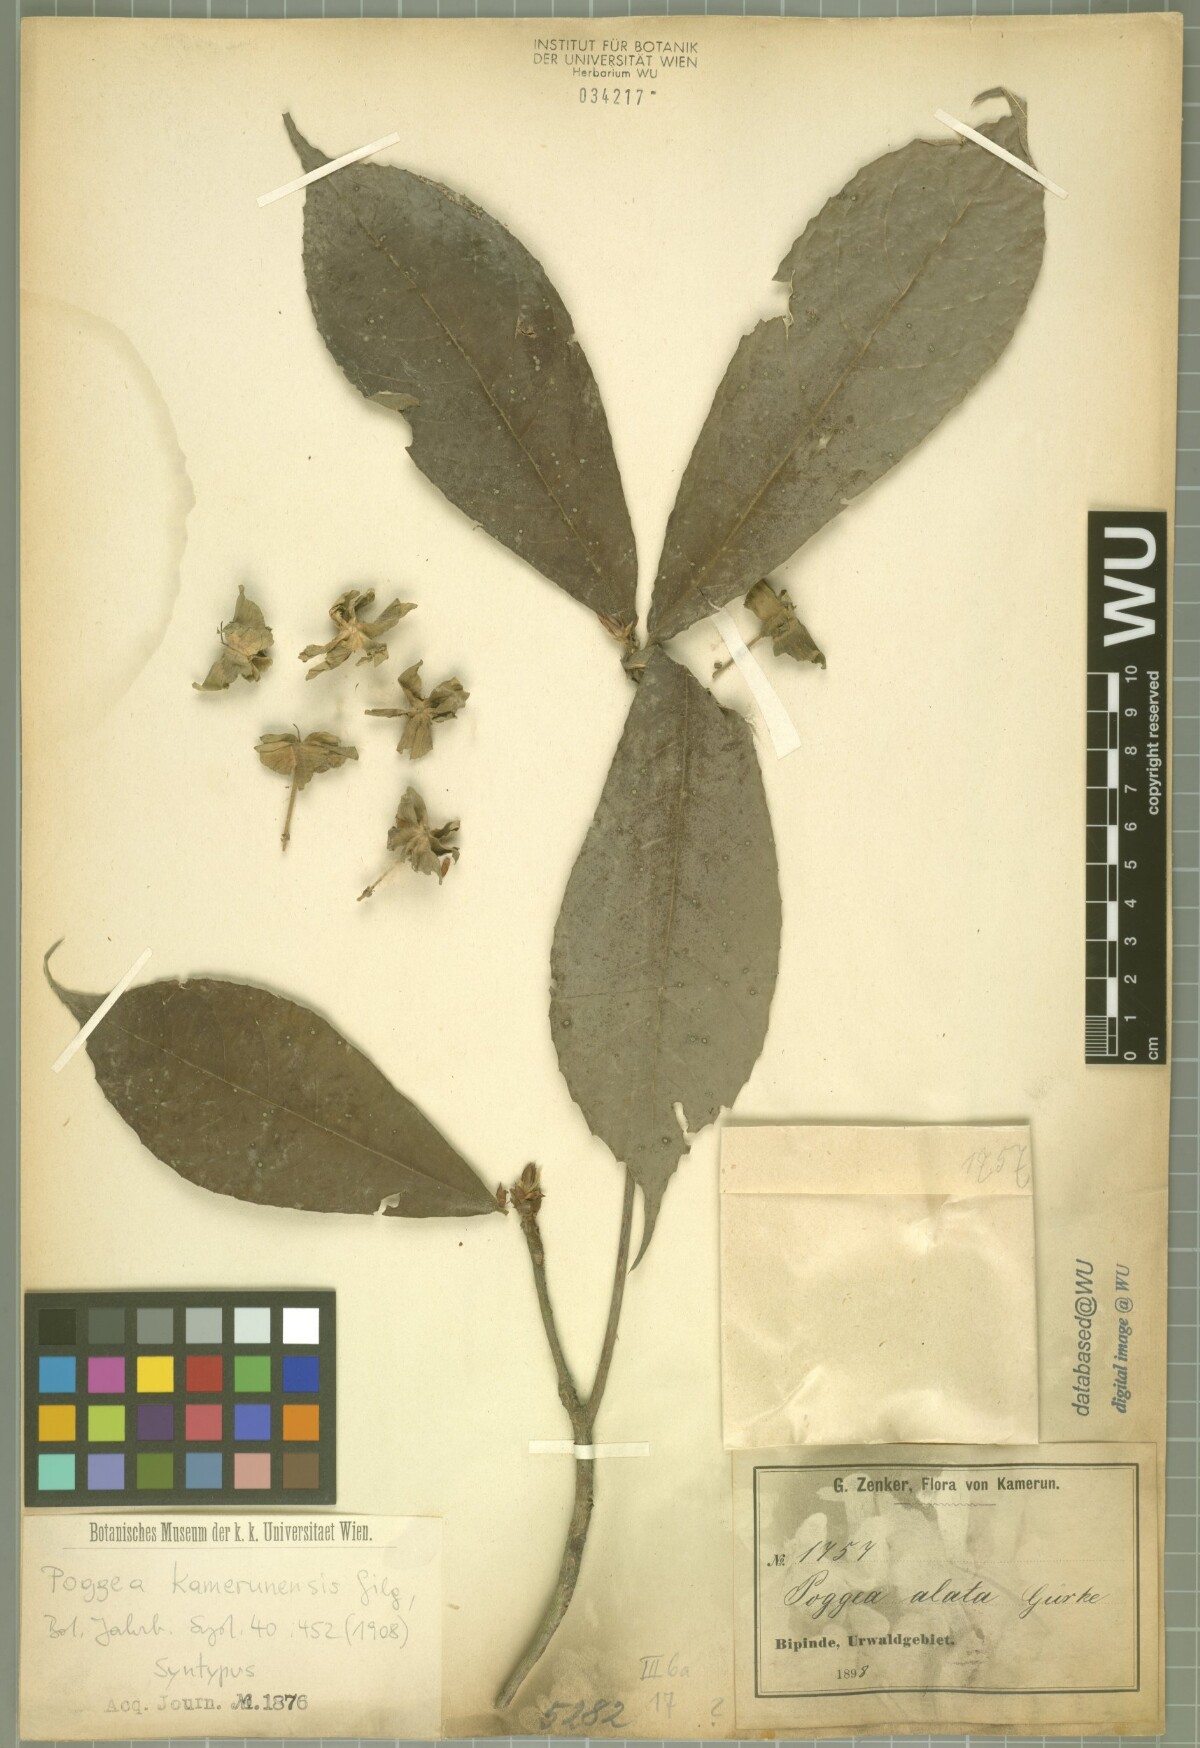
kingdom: Plantae
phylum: Tracheophyta
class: Magnoliopsida
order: Malpighiales
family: Achariaceae
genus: Poggea
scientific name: Poggea alata
